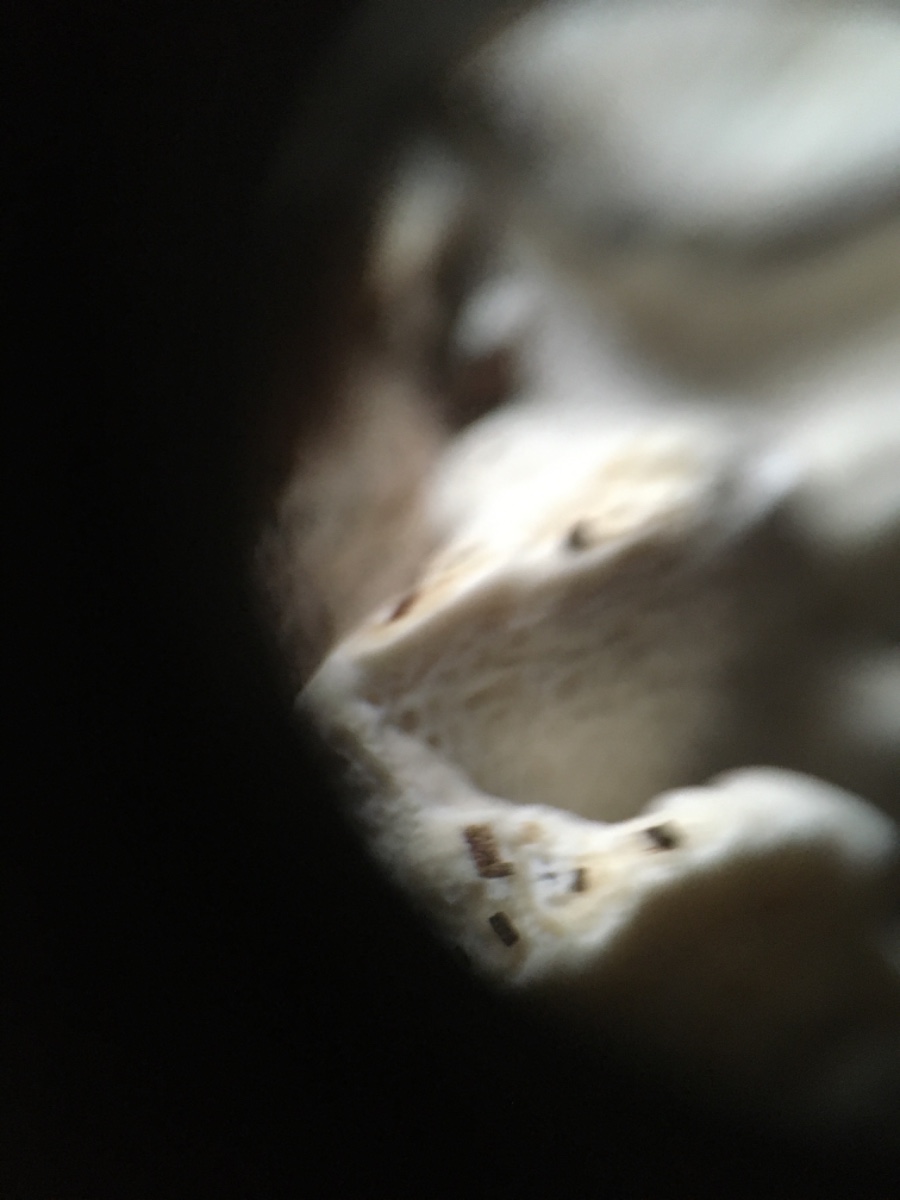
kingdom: Fungi
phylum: Basidiomycota
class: Agaricomycetes
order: Polyporales
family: Fomitopsidaceae
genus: Fomitopsis
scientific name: Fomitopsis
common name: fyrre-skiveporesvamp
